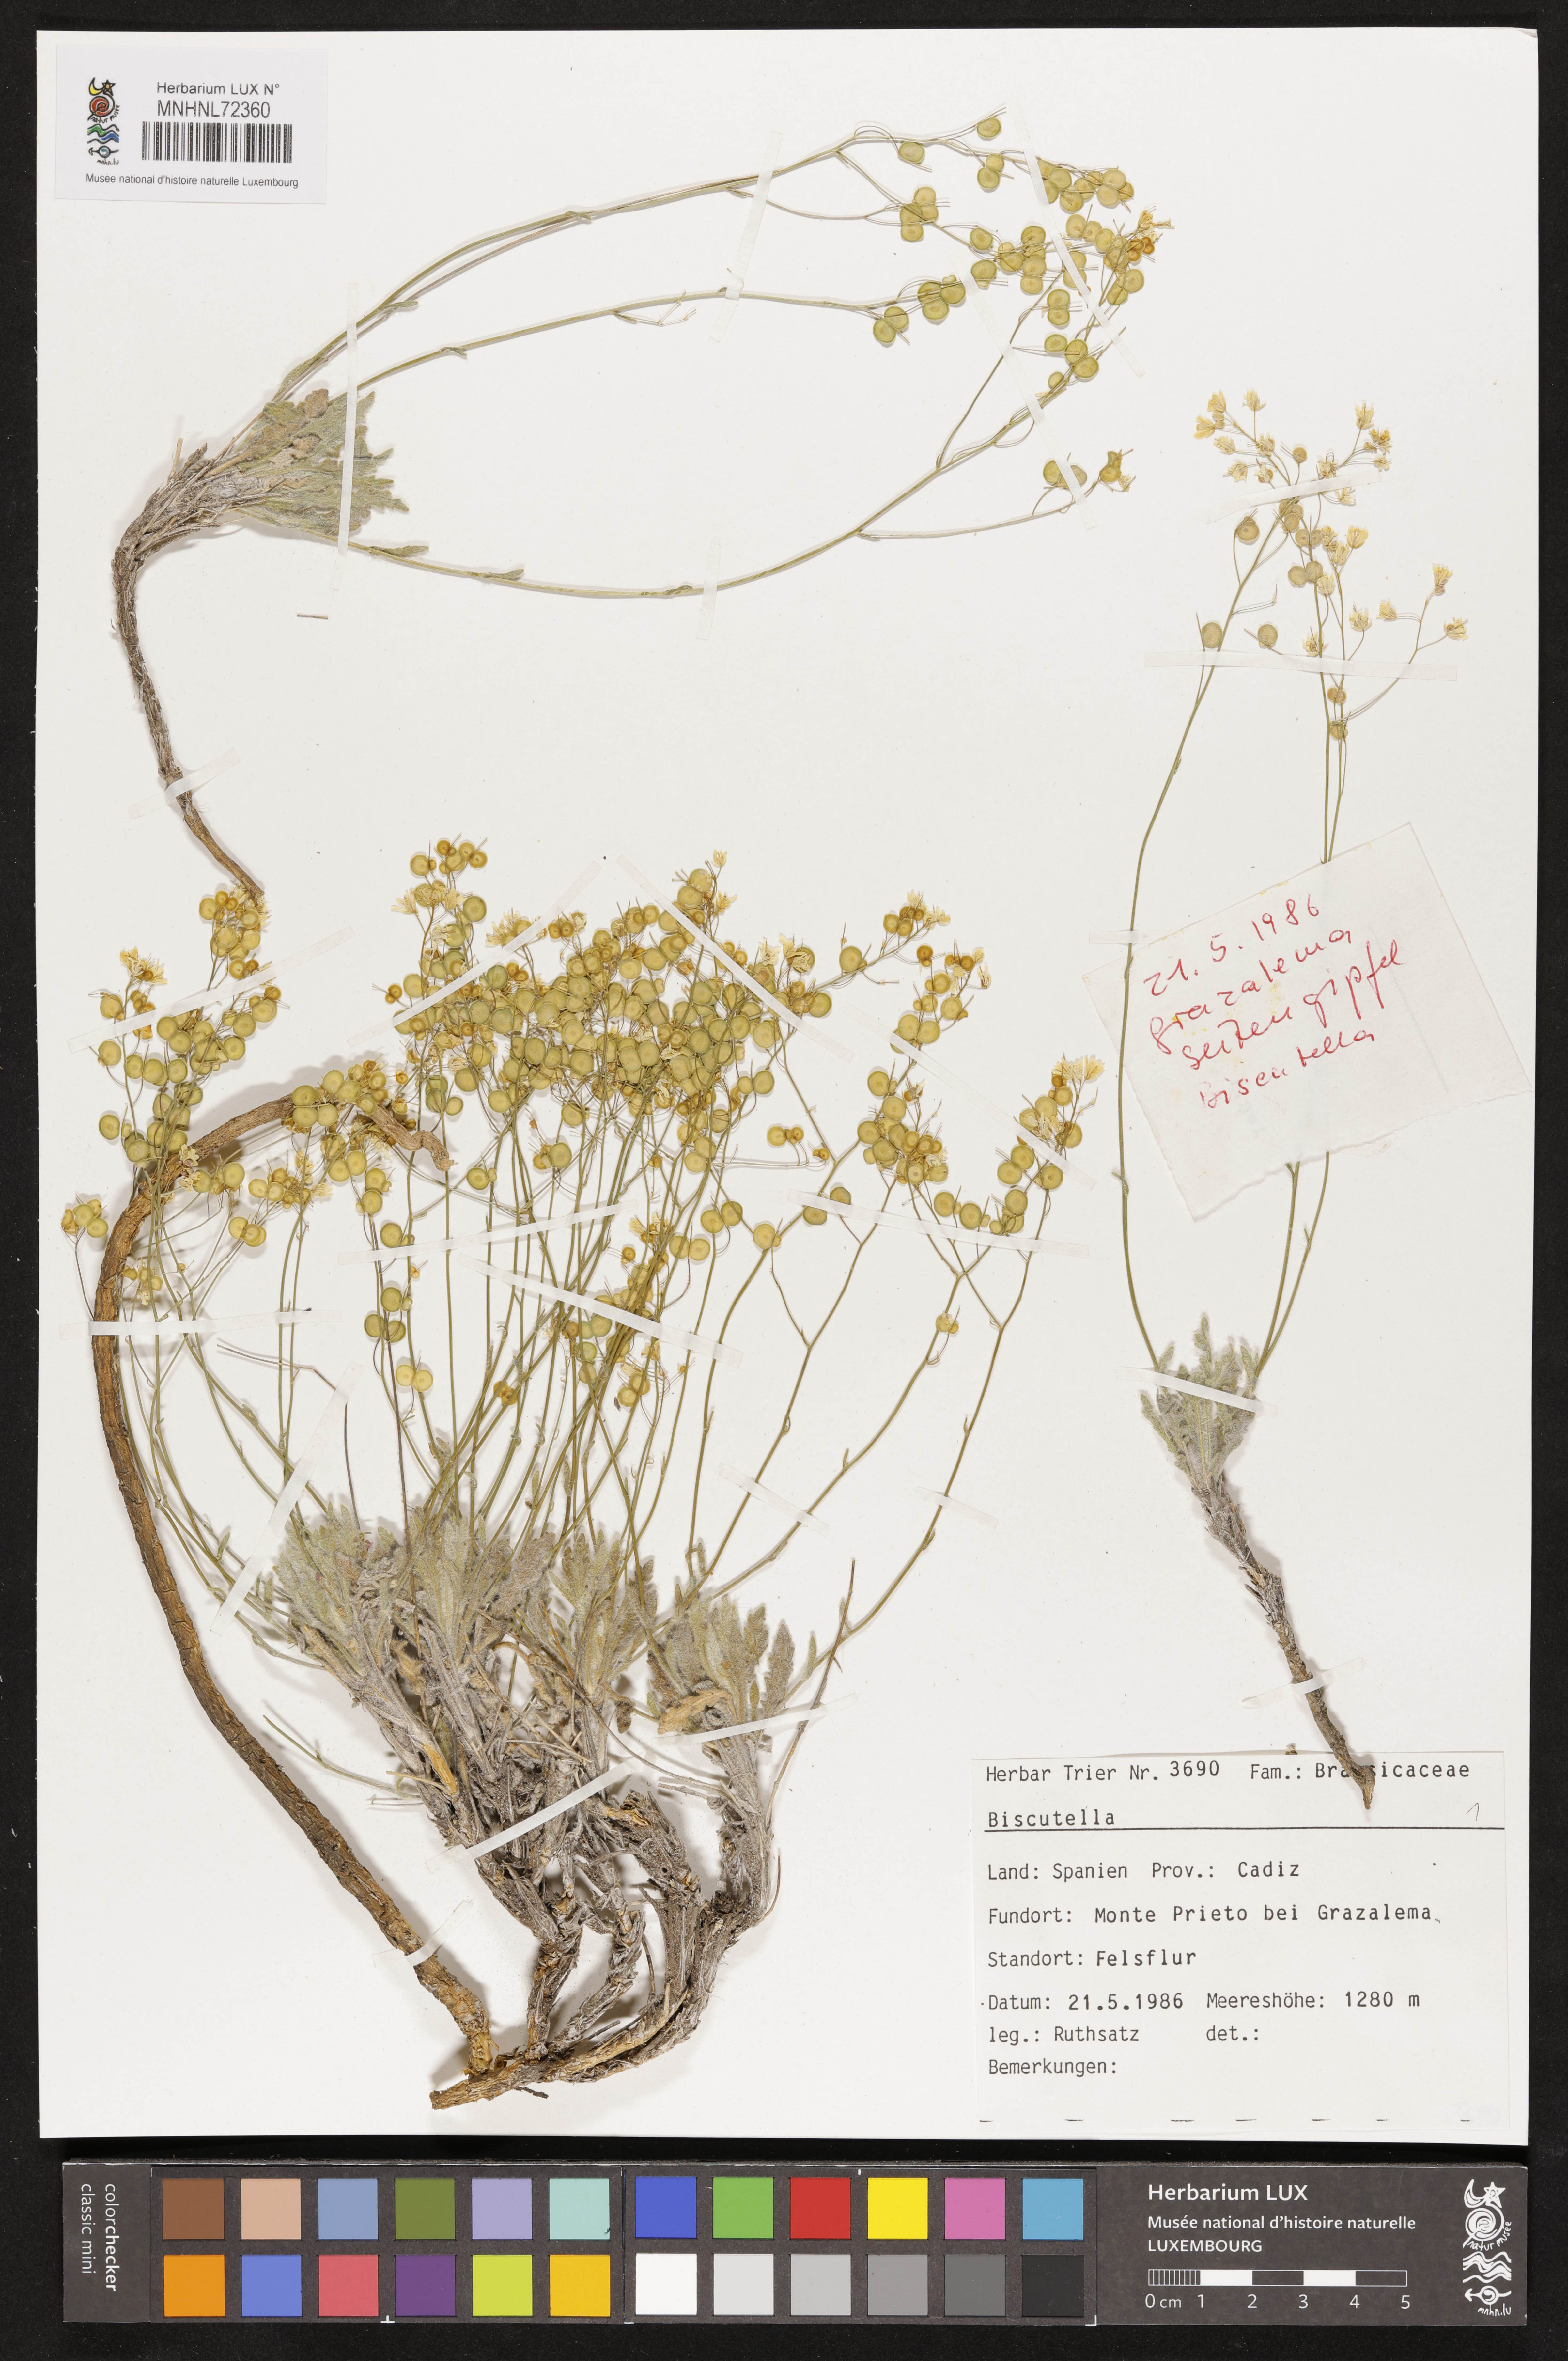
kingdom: Plantae
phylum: Tracheophyta
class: Magnoliopsida
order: Brassicales
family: Brassicaceae
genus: Biscutella
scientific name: Biscutella
